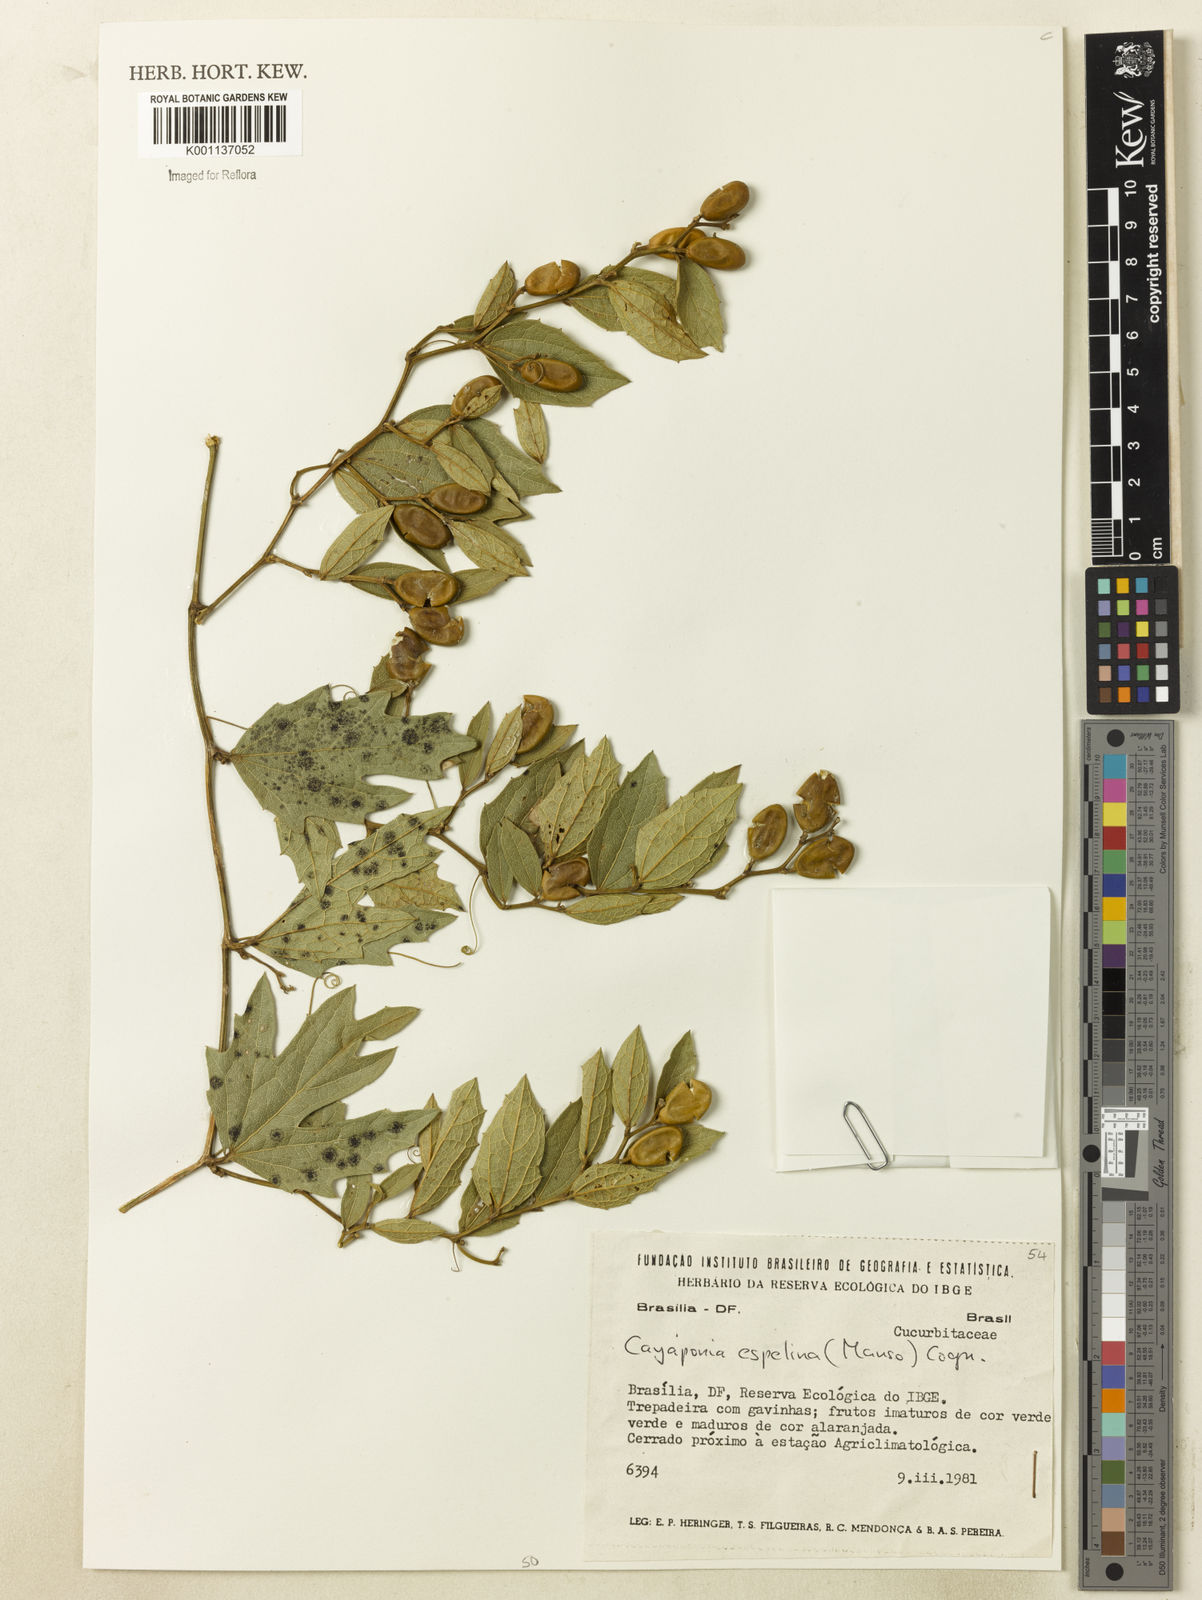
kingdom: Plantae
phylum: Tracheophyta
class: Magnoliopsida
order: Cucurbitales
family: Cucurbitaceae
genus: Cayaponia
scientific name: Cayaponia espelina
